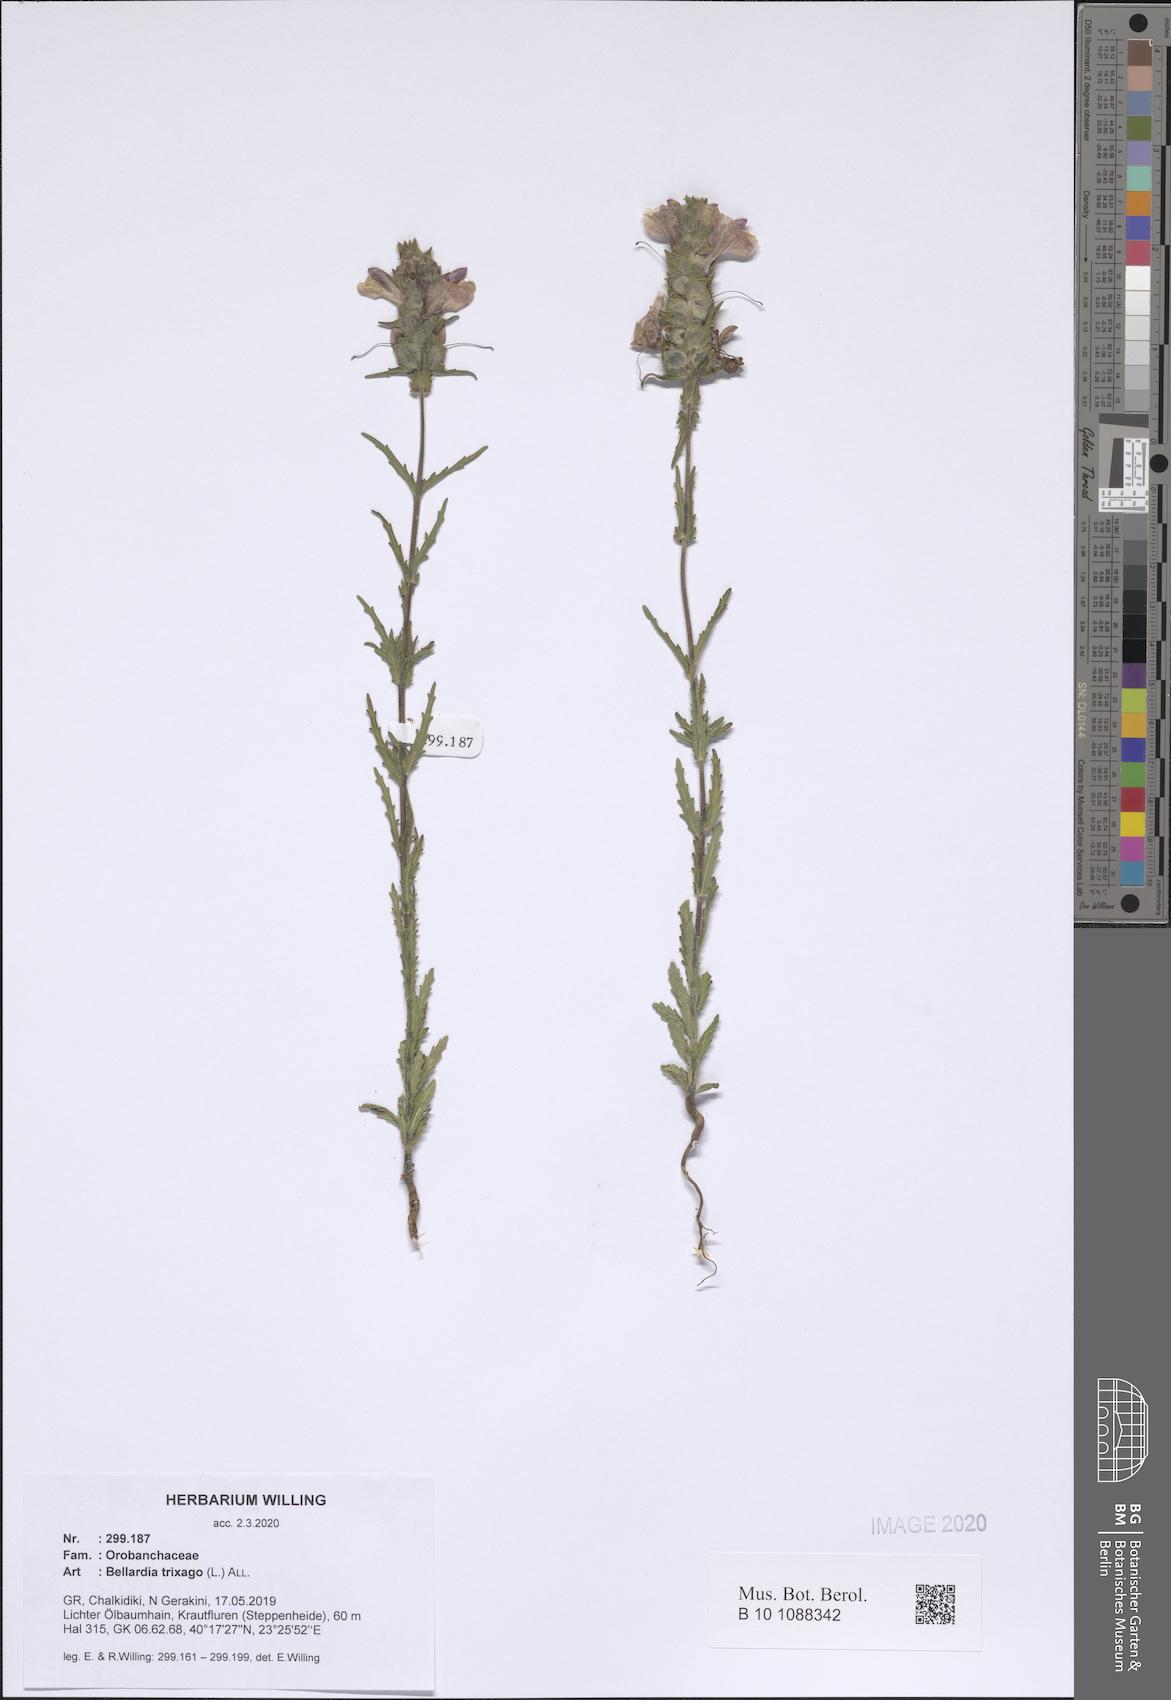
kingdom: Plantae
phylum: Tracheophyta
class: Magnoliopsida
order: Lamiales
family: Orobanchaceae
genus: Bellardia
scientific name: Bellardia trixago
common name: Mediterranean lineseed
